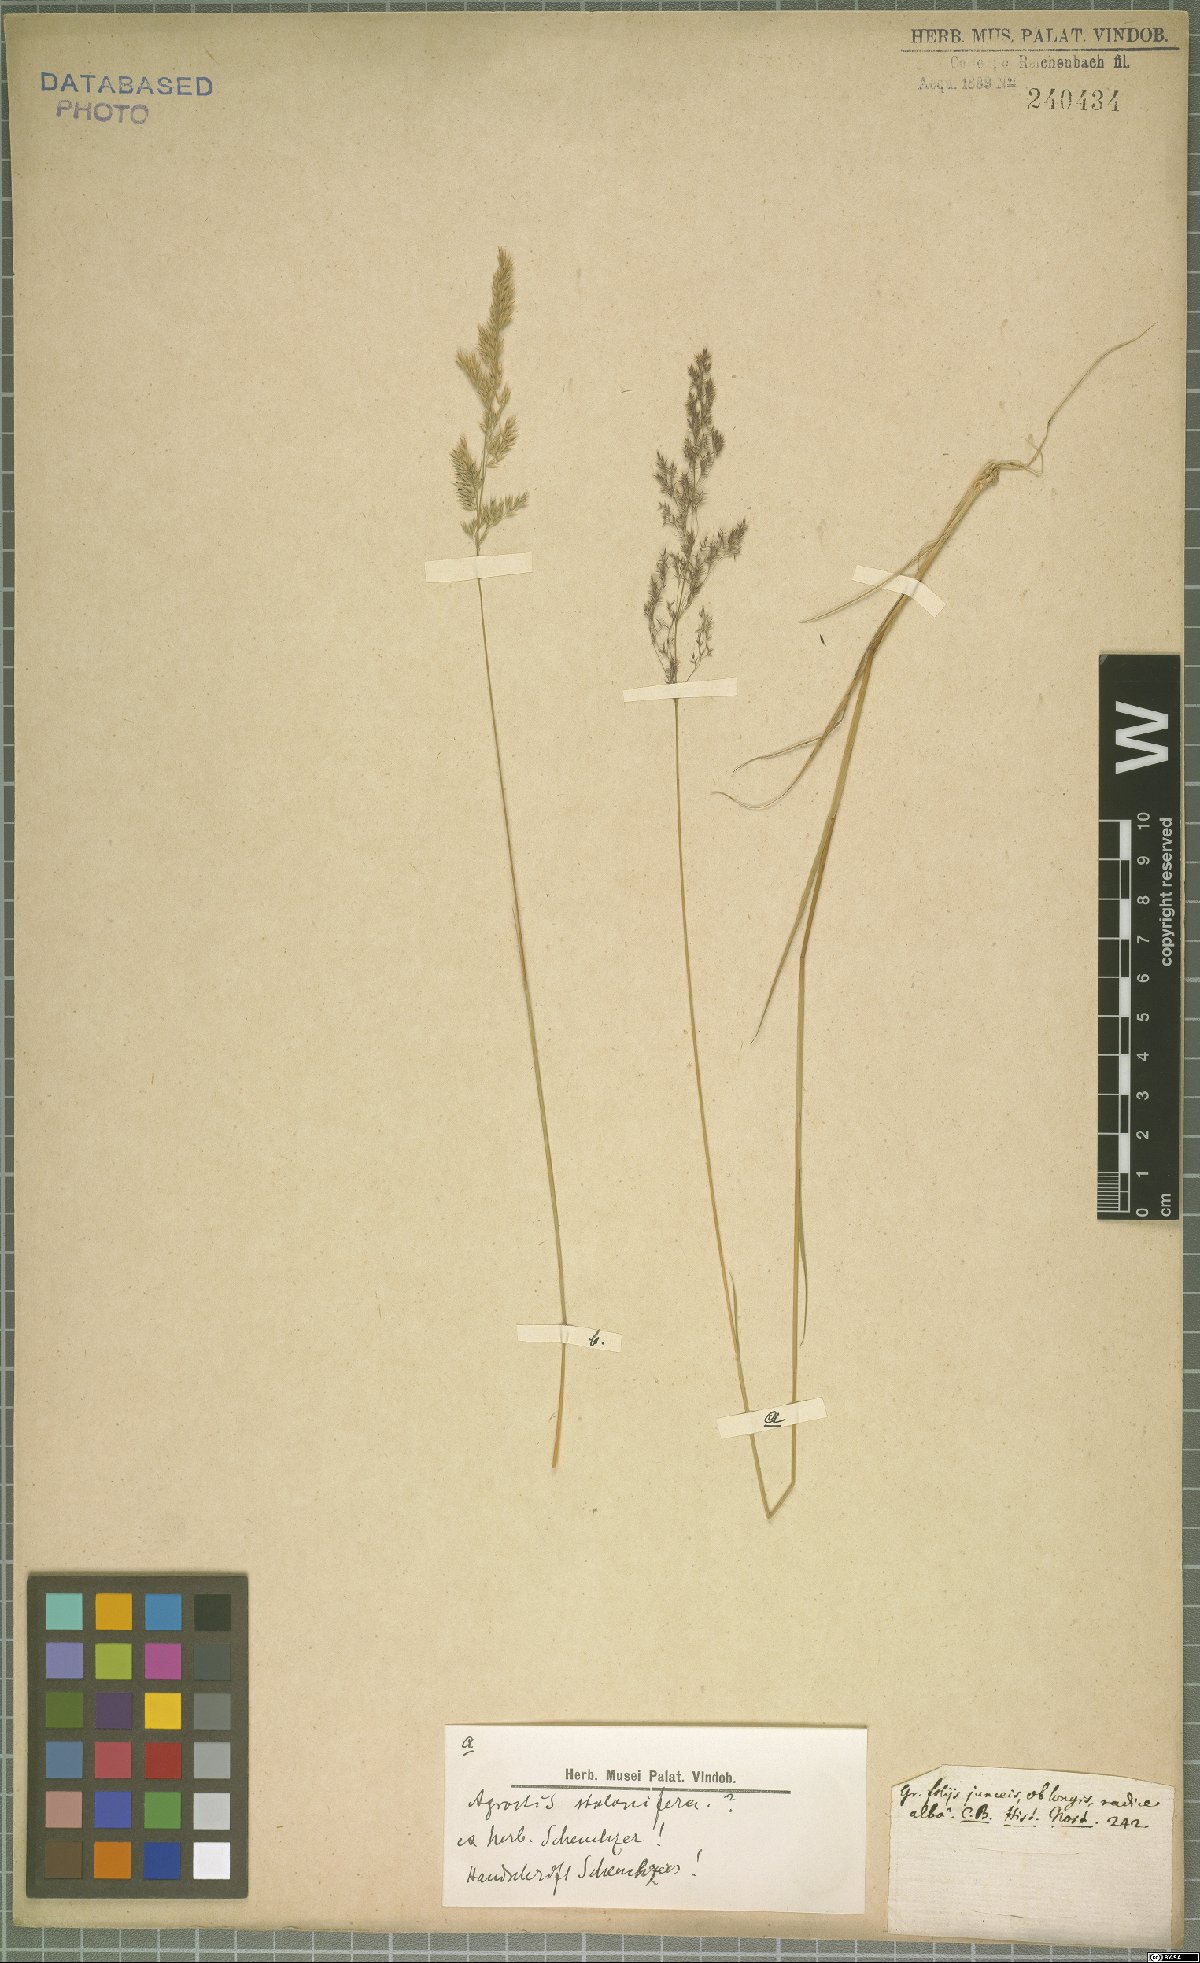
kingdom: Plantae
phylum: Tracheophyta
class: Liliopsida
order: Poales
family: Poaceae
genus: Agrostis
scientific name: Agrostis stolonifera
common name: Creeping bentgrass
